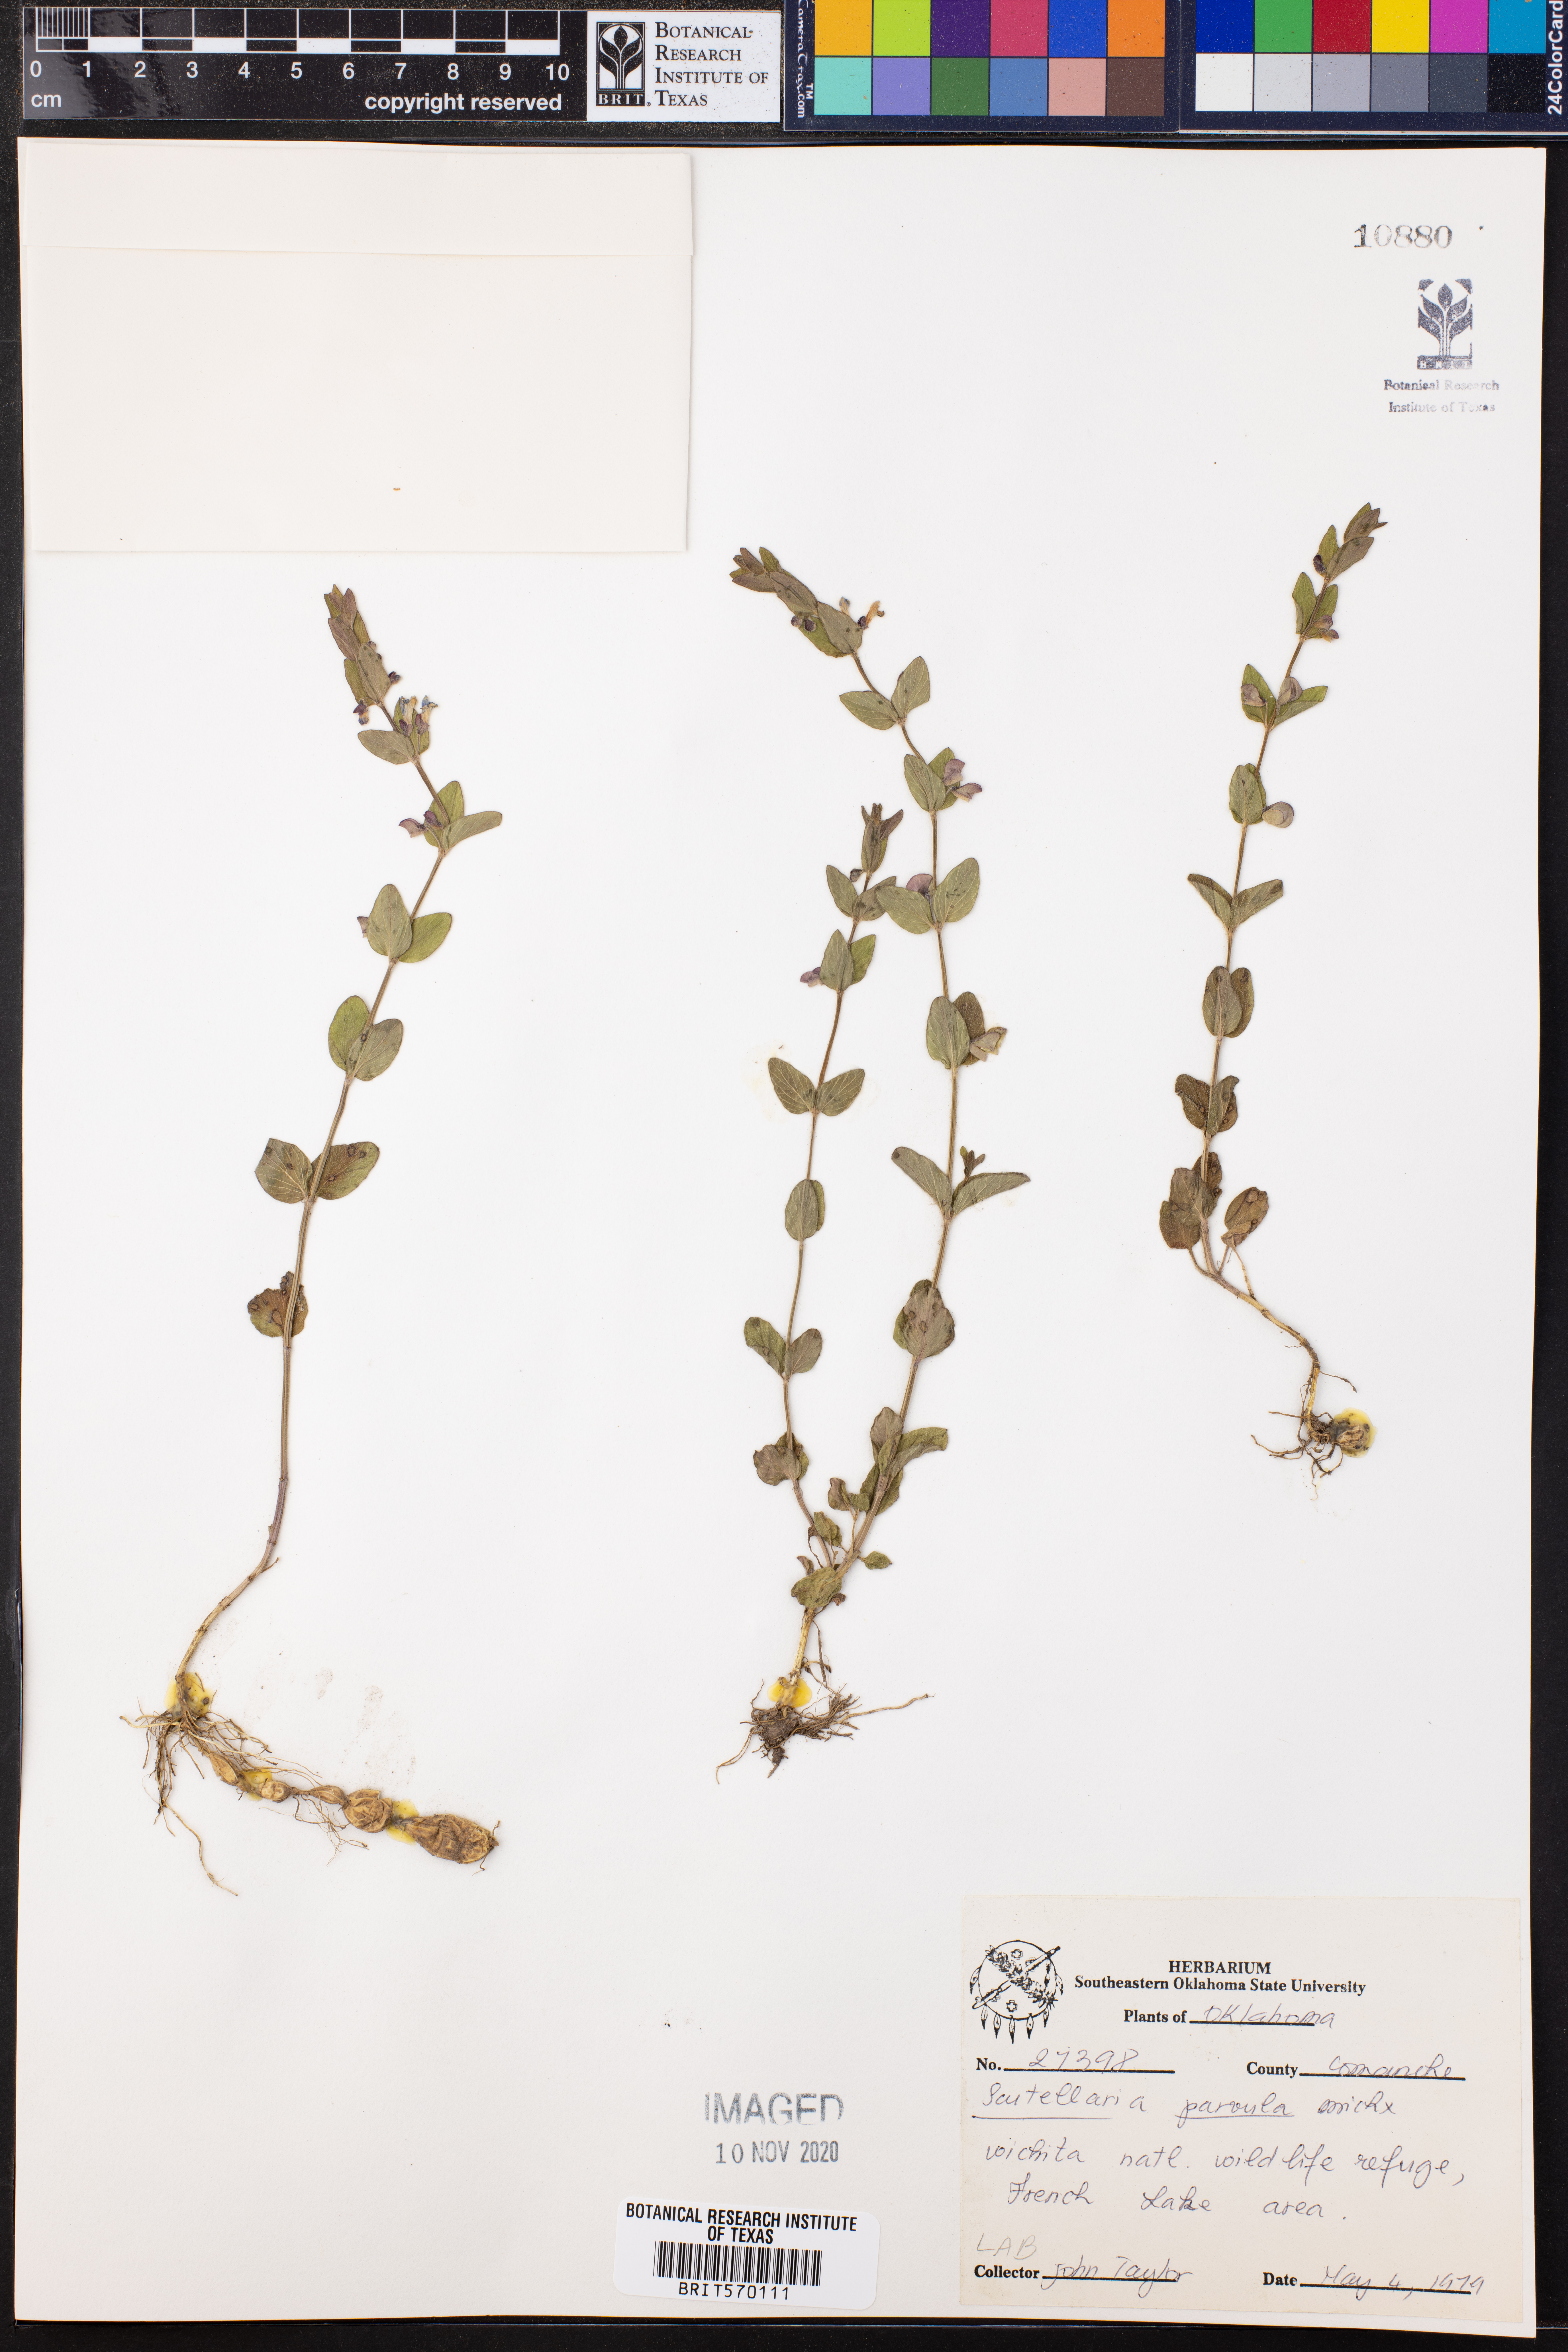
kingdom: Plantae
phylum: Tracheophyta
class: Magnoliopsida
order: Lamiales
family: Lamiaceae
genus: Scutellaria
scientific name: Scutellaria parvula
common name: Little scullcap
